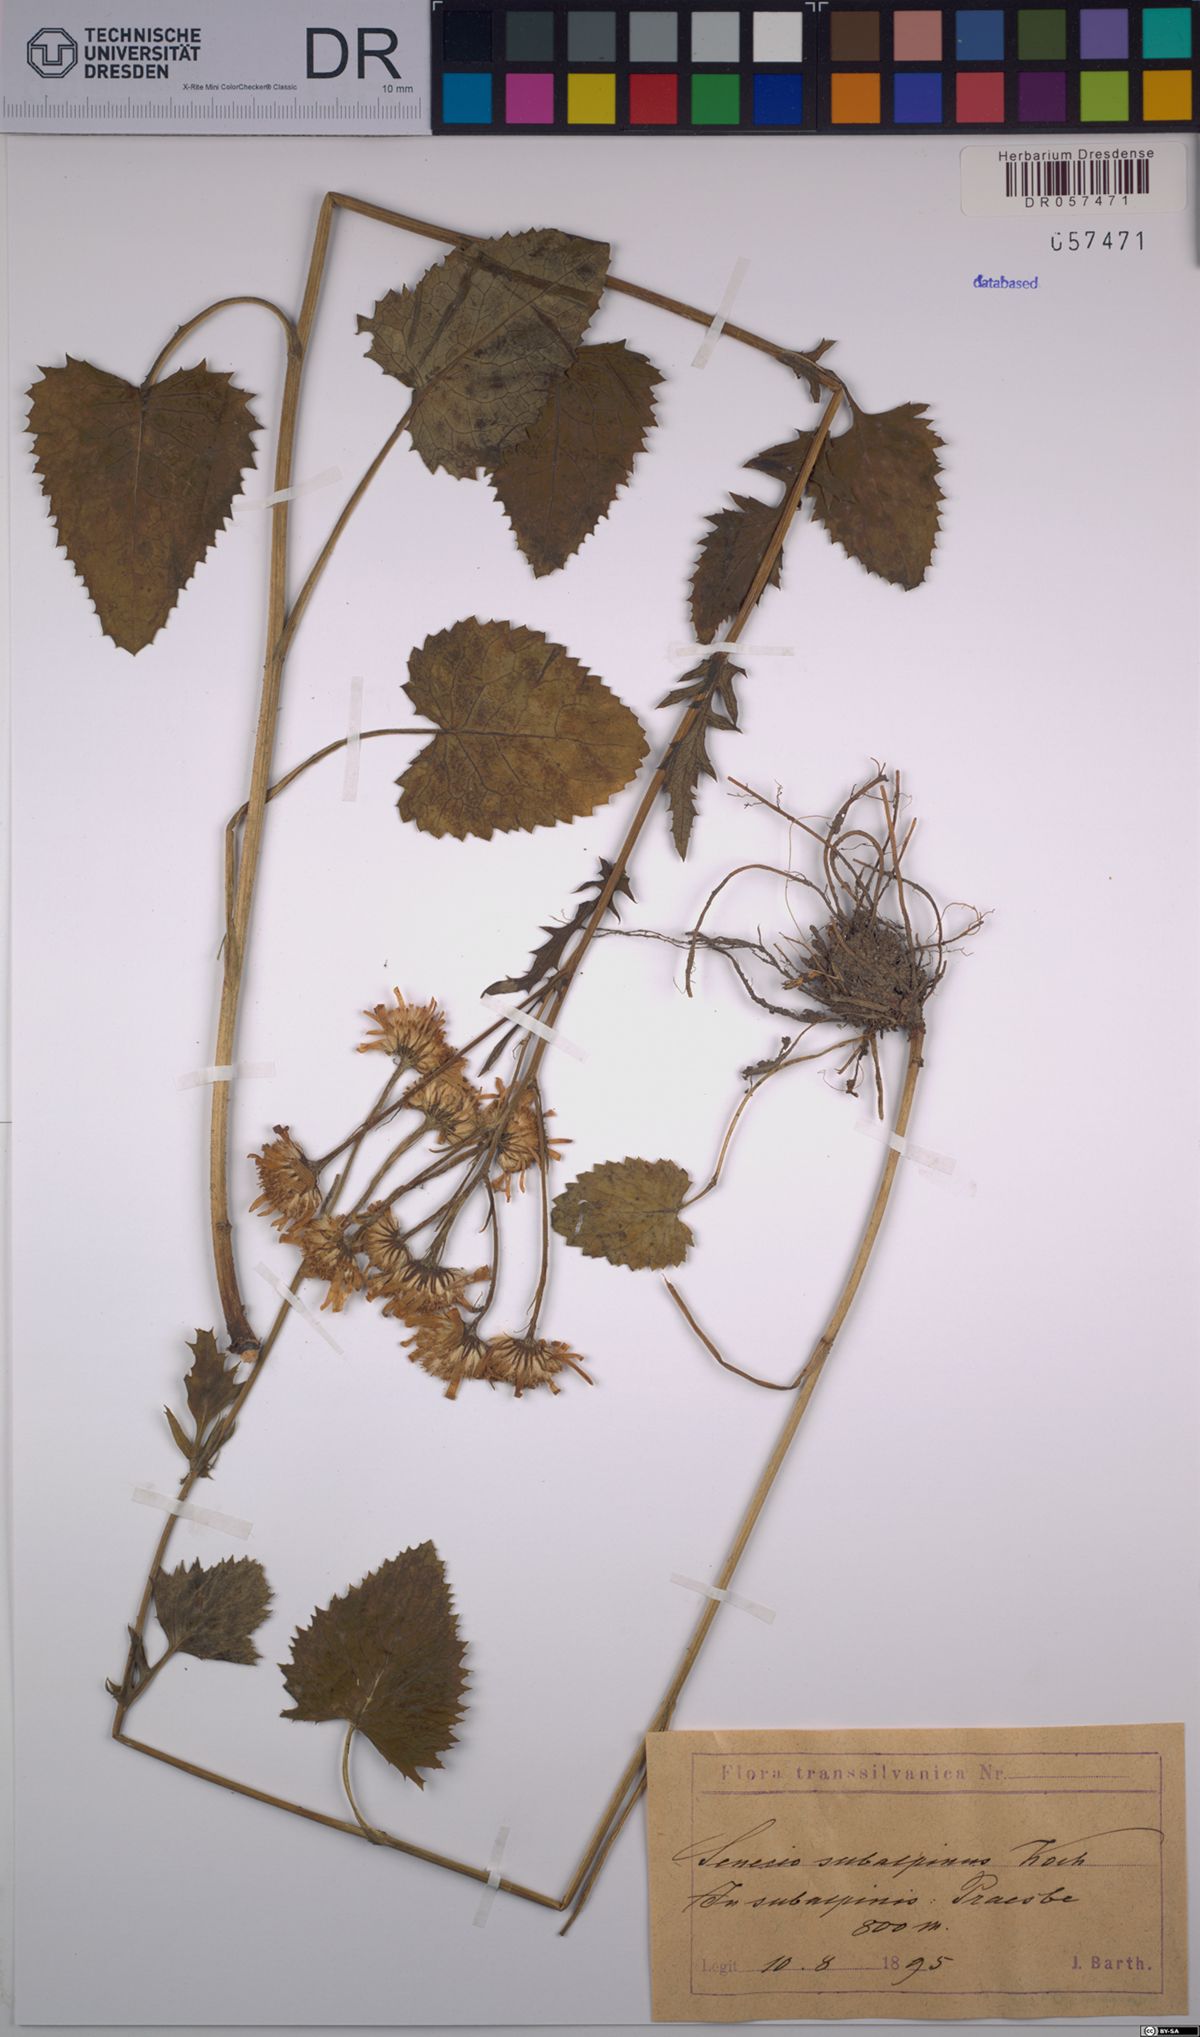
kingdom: Plantae
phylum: Tracheophyta
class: Magnoliopsida
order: Asterales
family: Asteraceae
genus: Jacobaea
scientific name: Jacobaea subalpina
